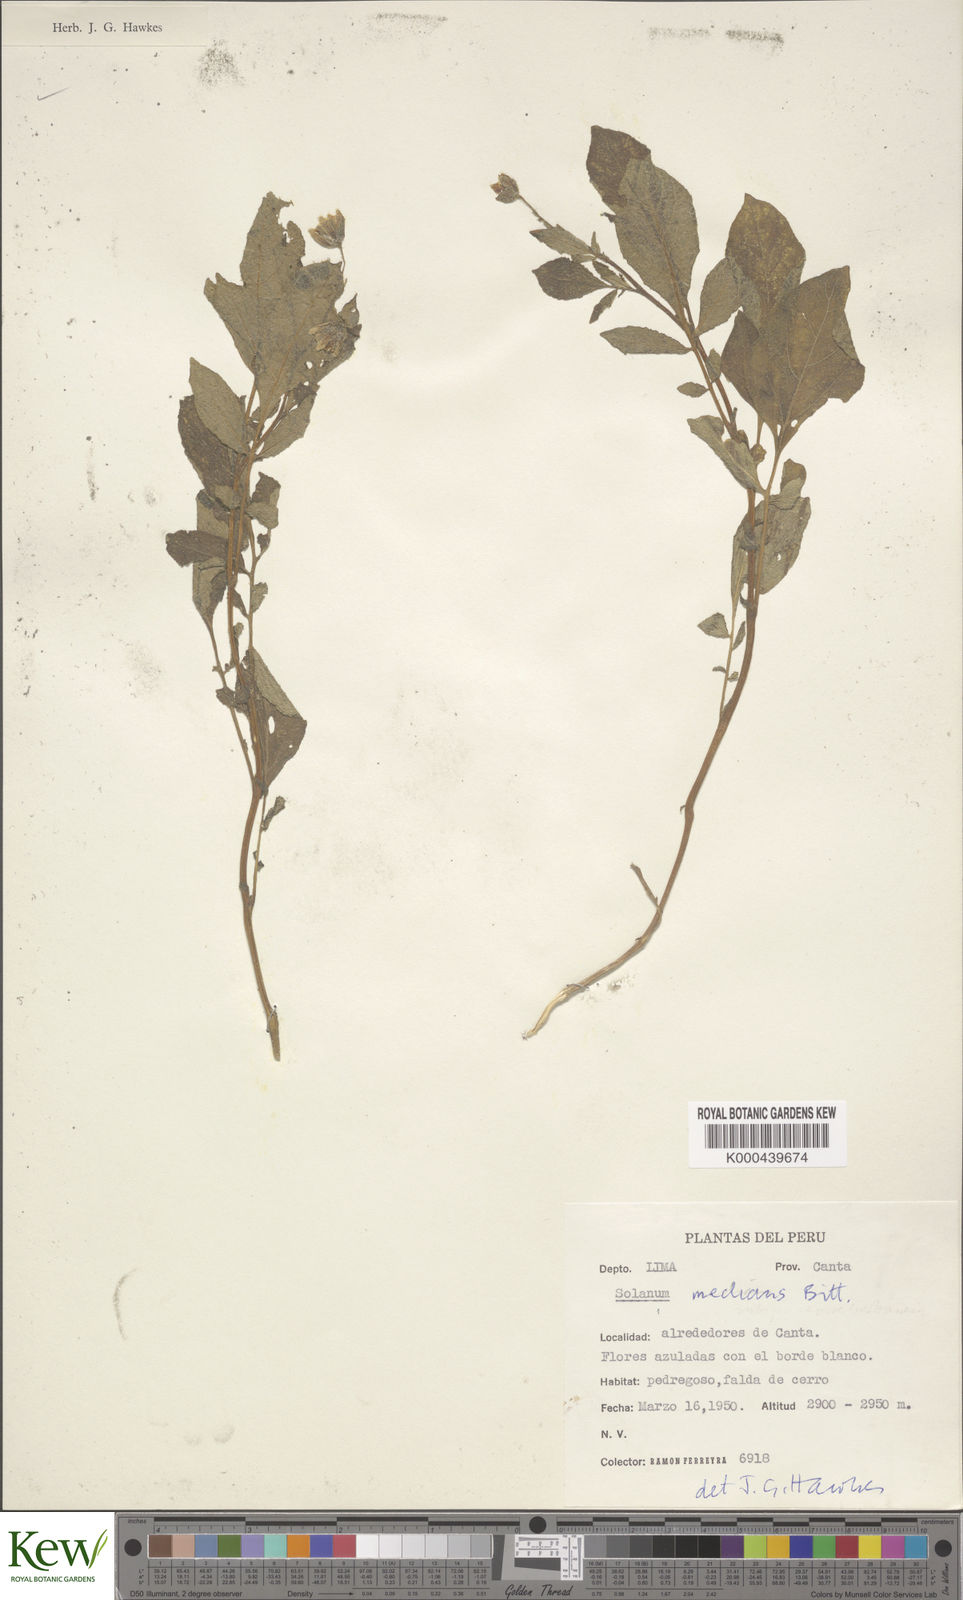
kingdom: Plantae
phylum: Tracheophyta
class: Magnoliopsida
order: Solanales
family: Solanaceae
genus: Solanum
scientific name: Solanum medians
